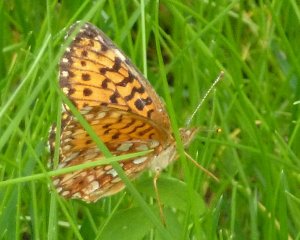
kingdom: Animalia
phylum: Arthropoda
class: Insecta
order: Lepidoptera
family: Nymphalidae
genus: Boloria
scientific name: Boloria selene
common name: Silver-bordered Fritillary
